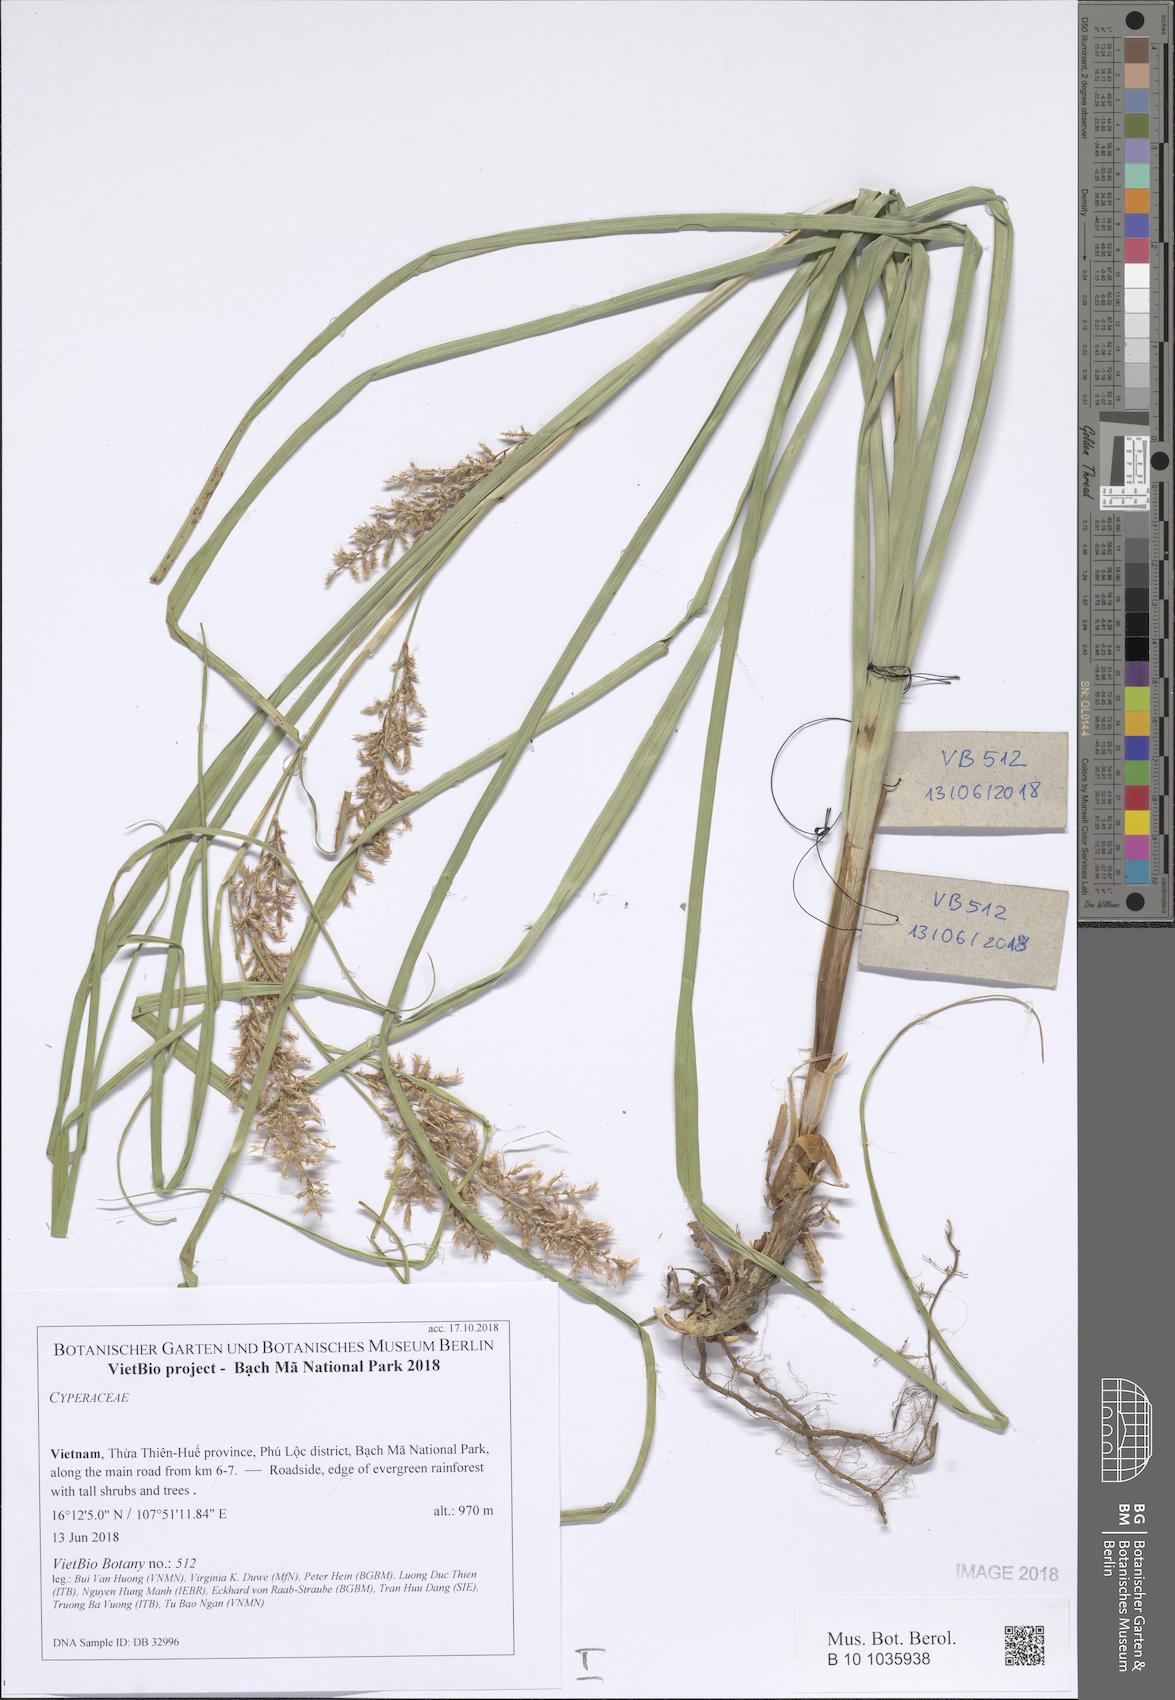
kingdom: Plantae
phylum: Tracheophyta
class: Liliopsida
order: Poales
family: Cyperaceae
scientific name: Cyperaceae
